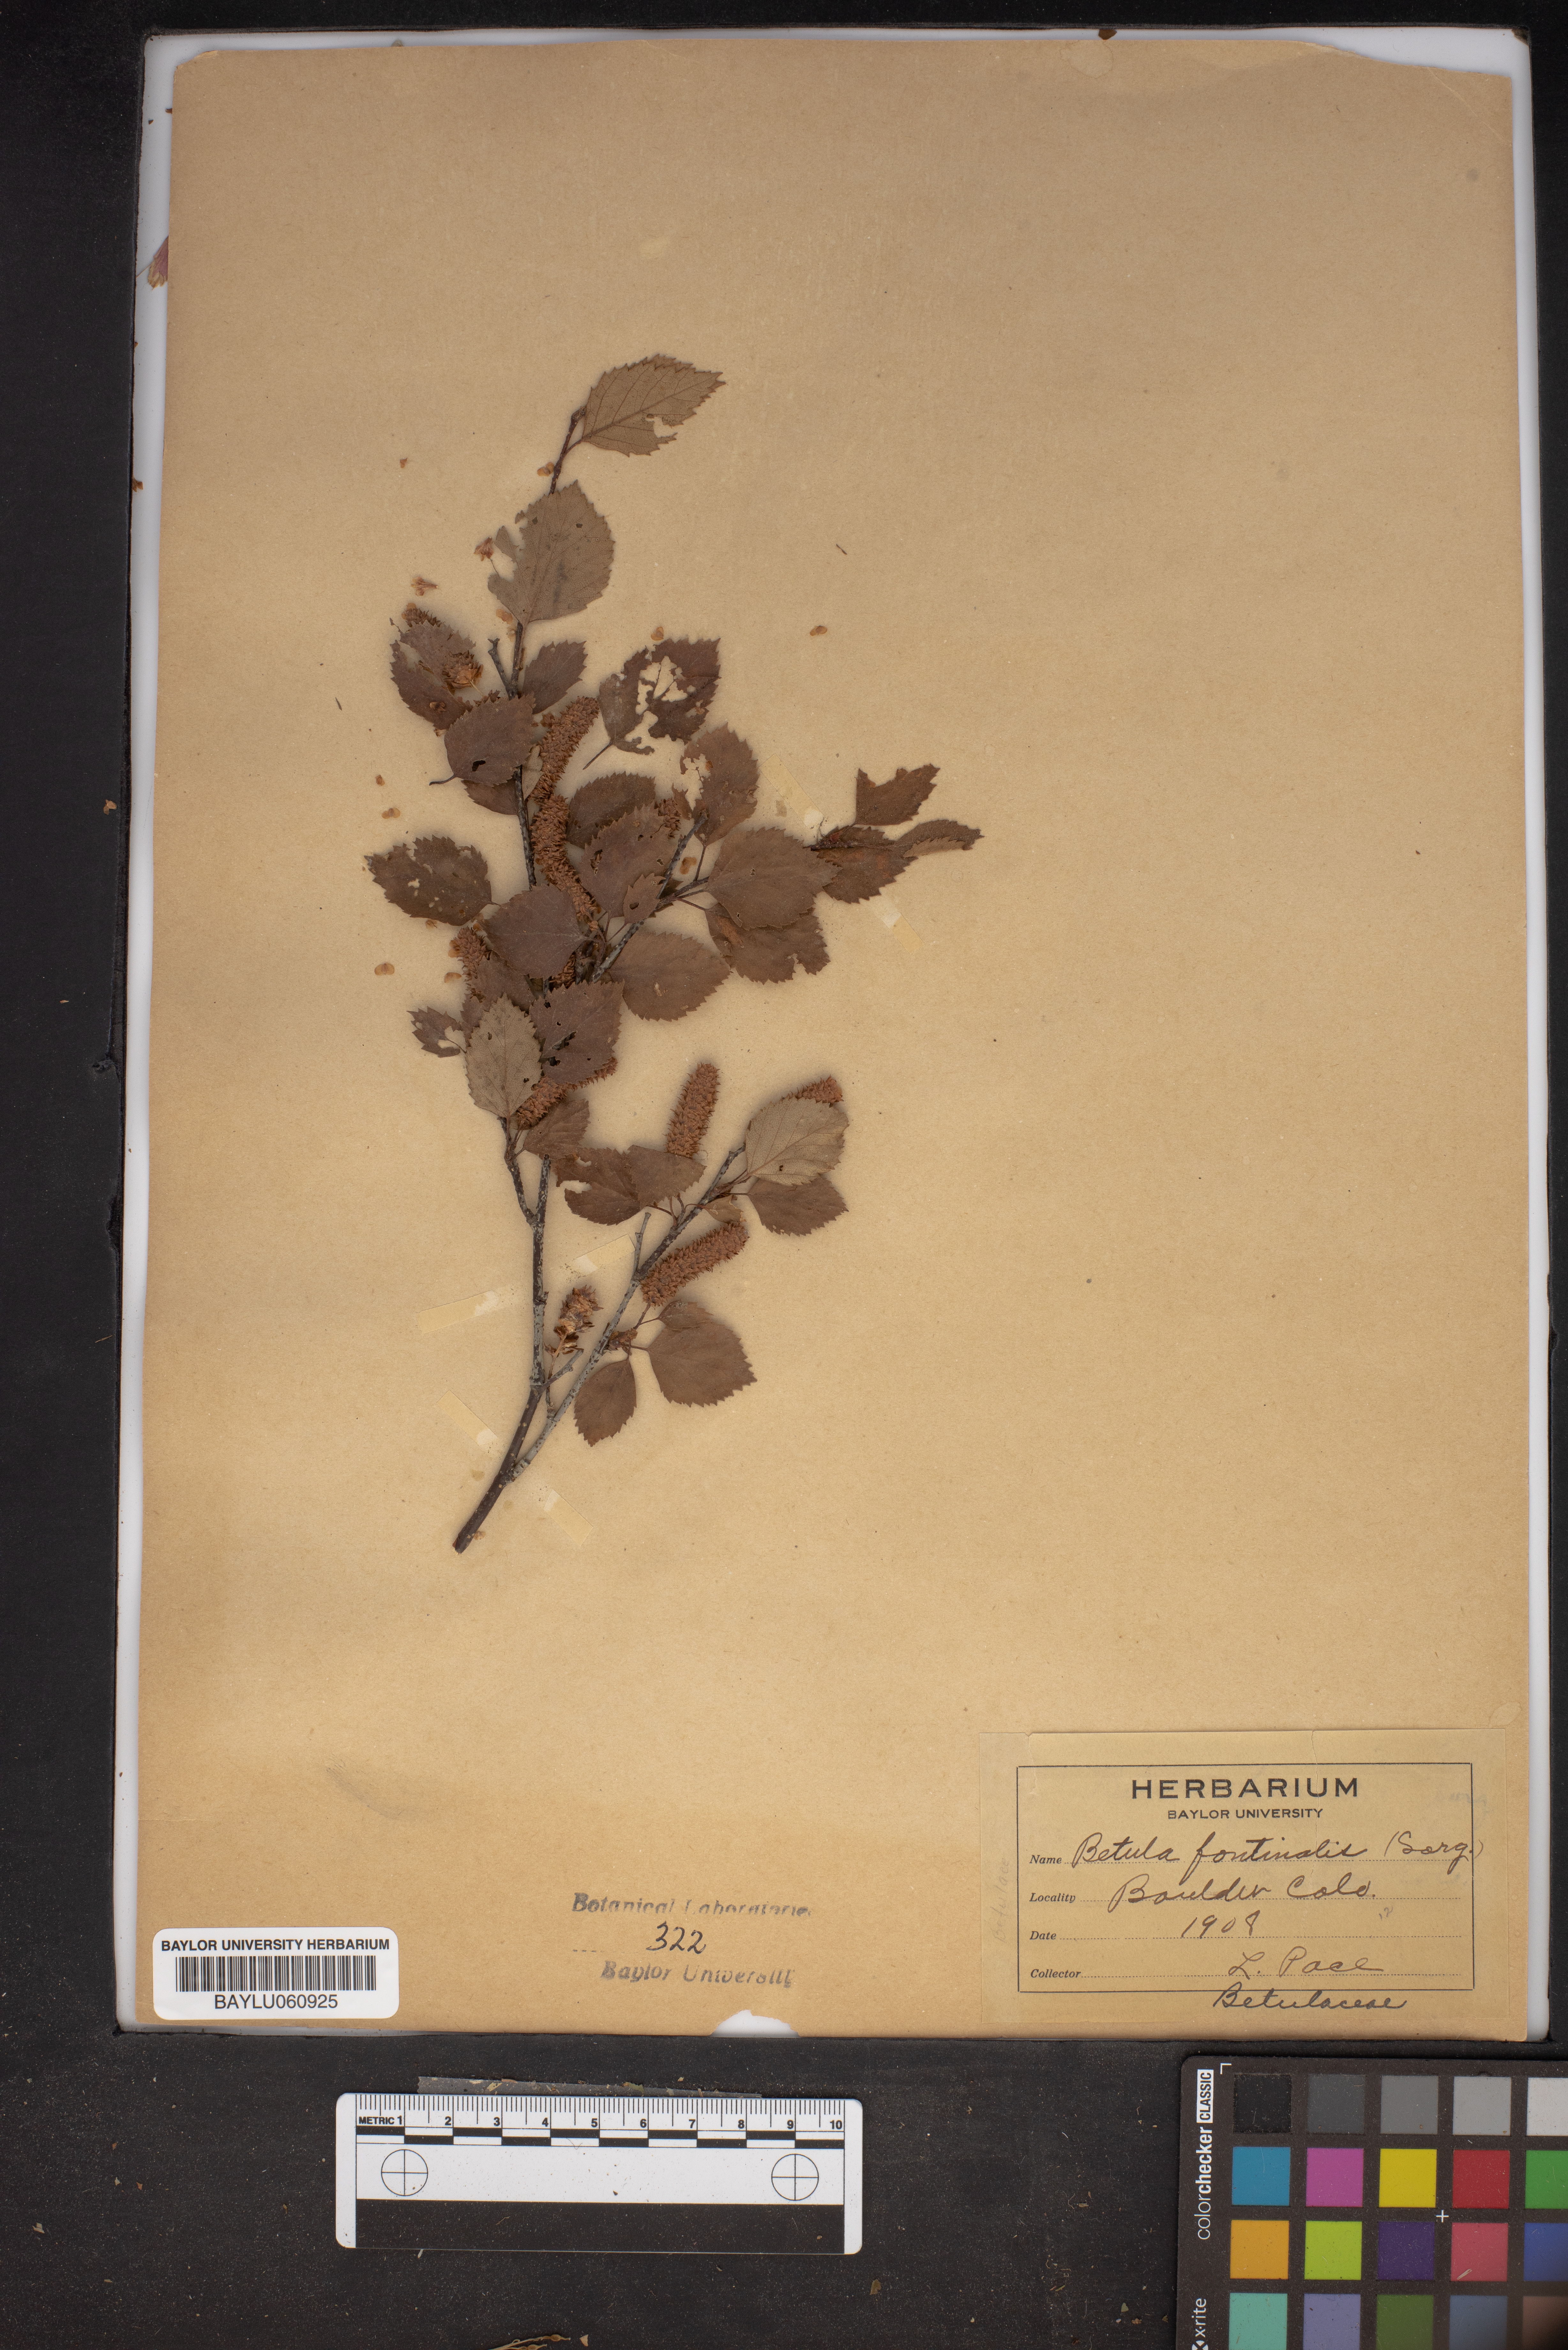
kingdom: Plantae
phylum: Tracheophyta
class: Magnoliopsida
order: Fagales
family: Betulaceae
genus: Betula
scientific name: Betula occidentalis
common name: River birch
